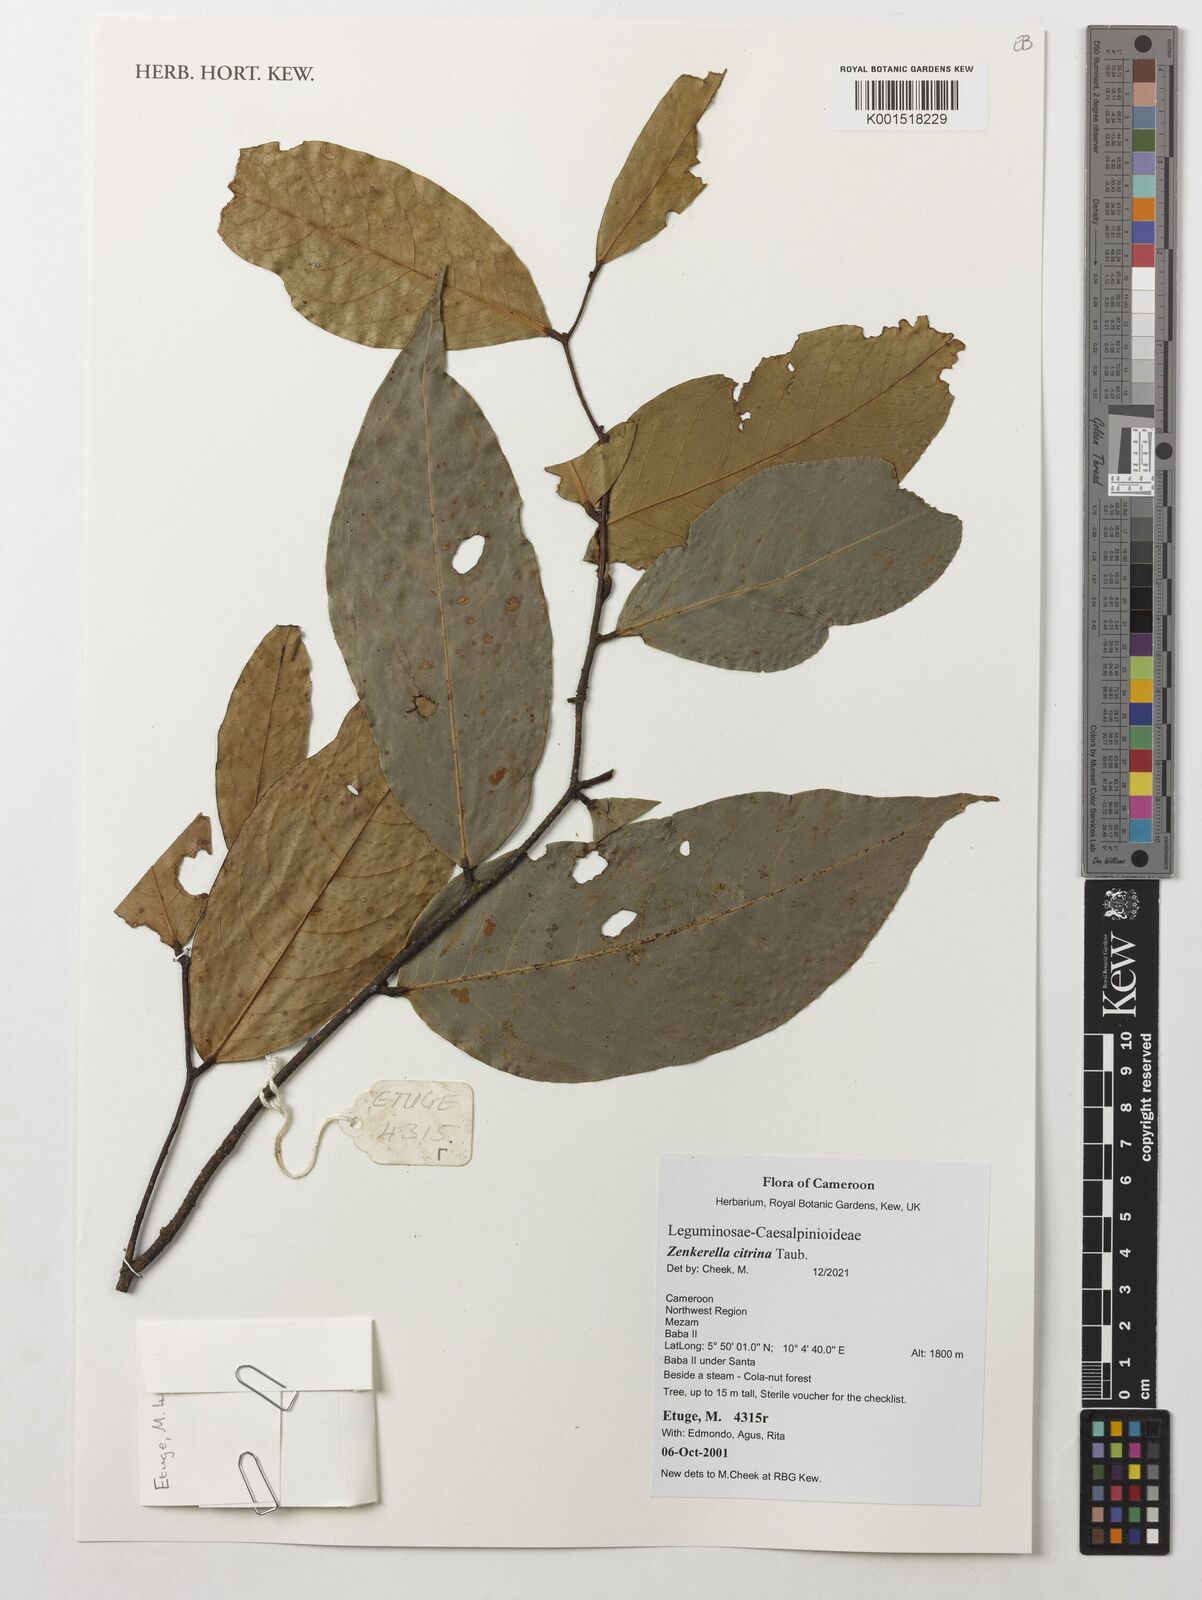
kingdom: Plantae
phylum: Tracheophyta
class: Magnoliopsida
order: Fabales
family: Fabaceae
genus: Zenkerella
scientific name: Zenkerella citrina
